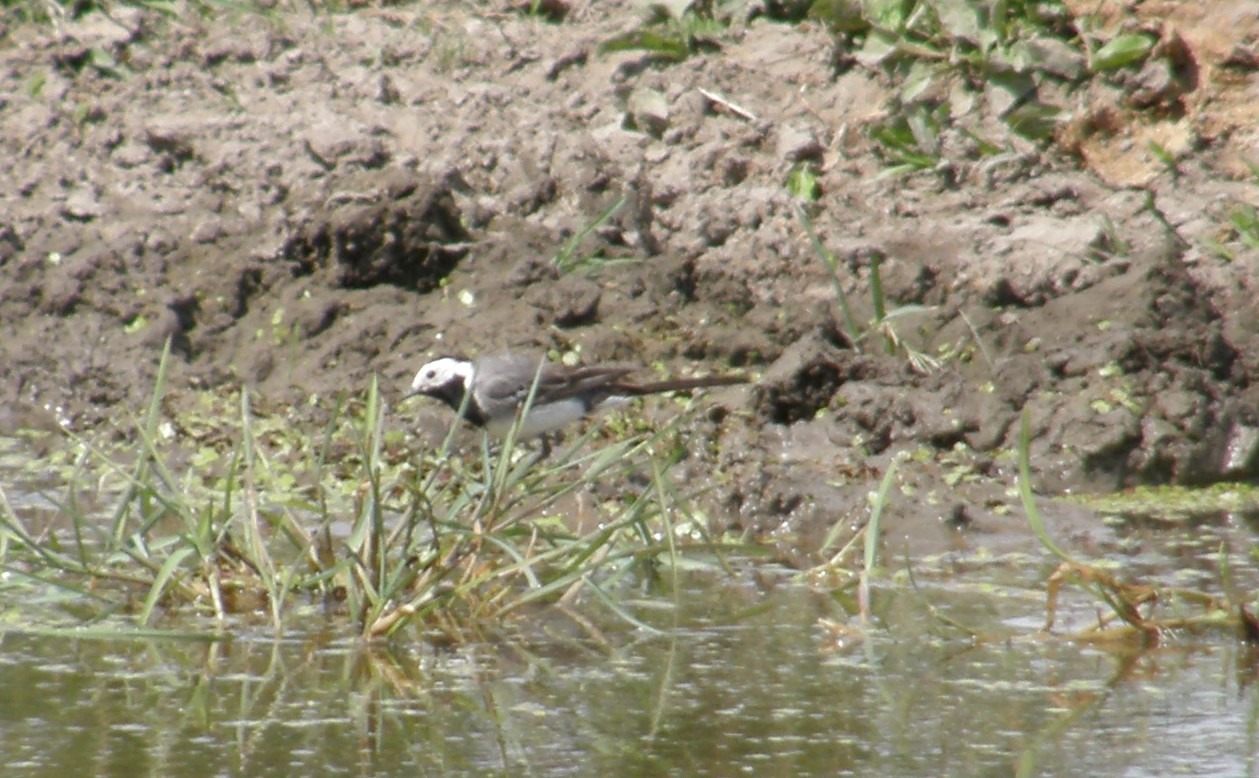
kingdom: Animalia
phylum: Chordata
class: Aves
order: Passeriformes
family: Motacillidae
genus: Motacilla
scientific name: Motacilla alba
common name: Hvid vipstjert
